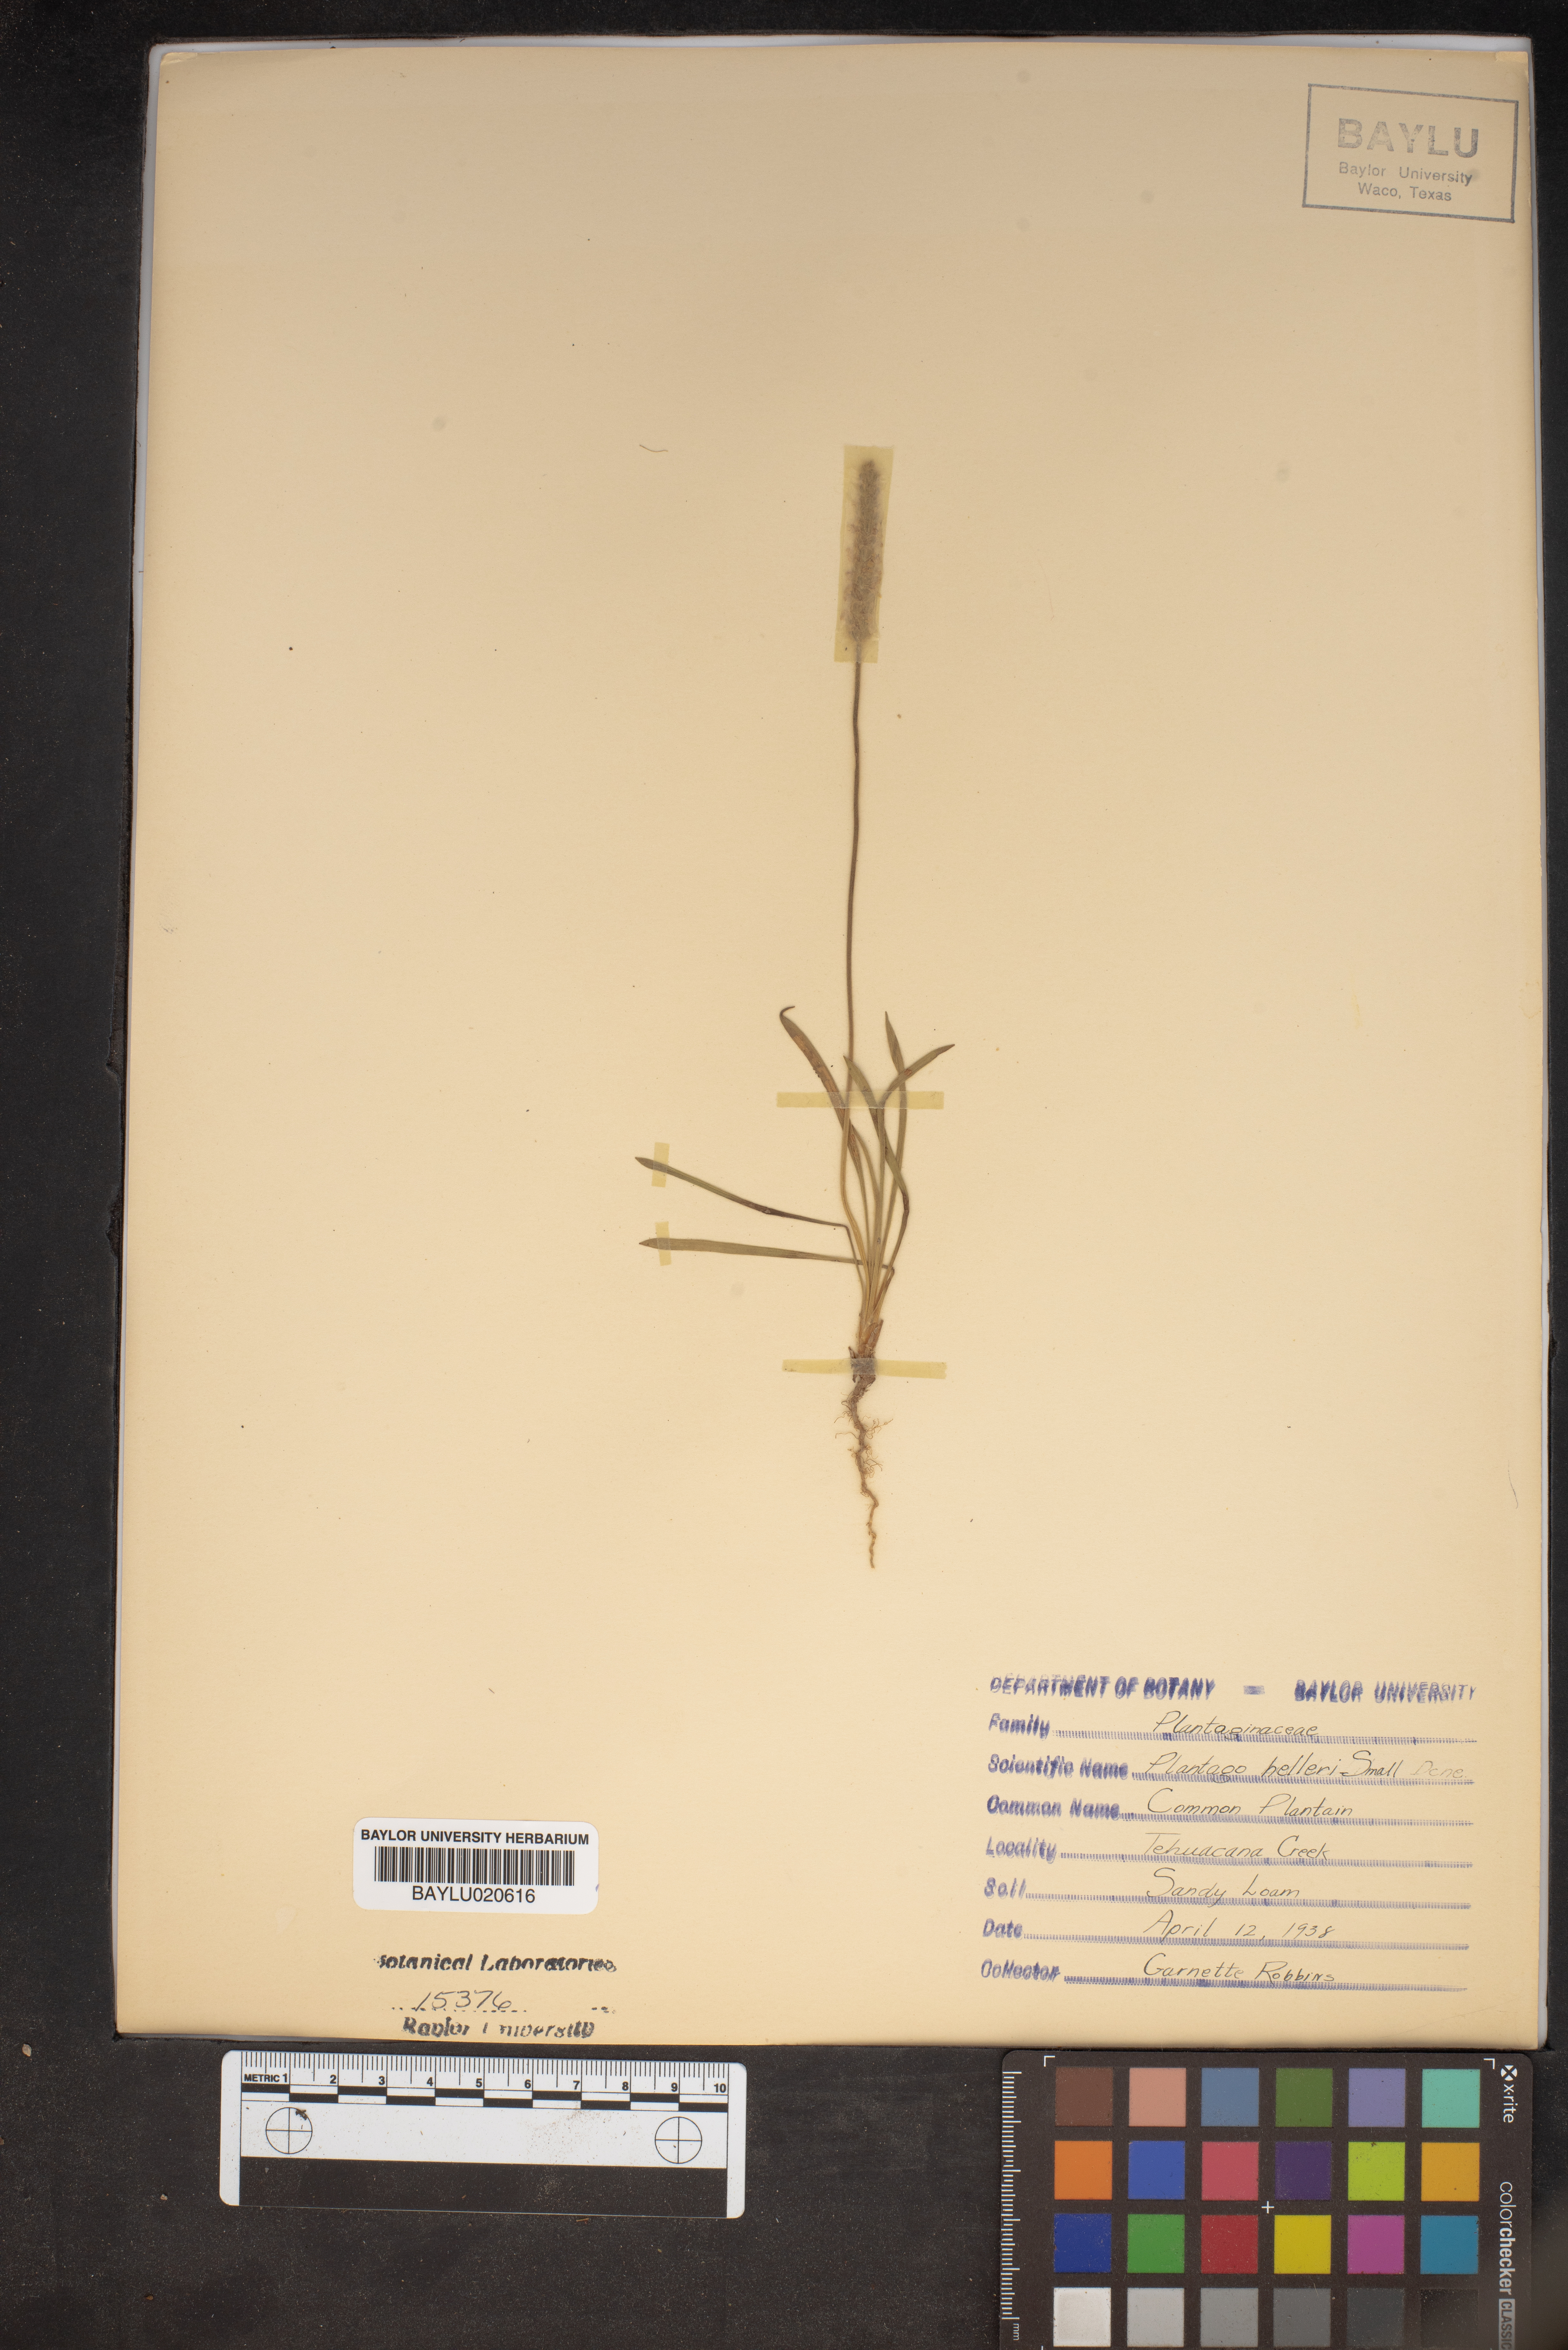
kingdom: Plantae
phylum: Tracheophyta
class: Magnoliopsida
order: Lamiales
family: Plantaginaceae
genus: Plantago
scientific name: Plantago helleri
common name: Heller's plantain
